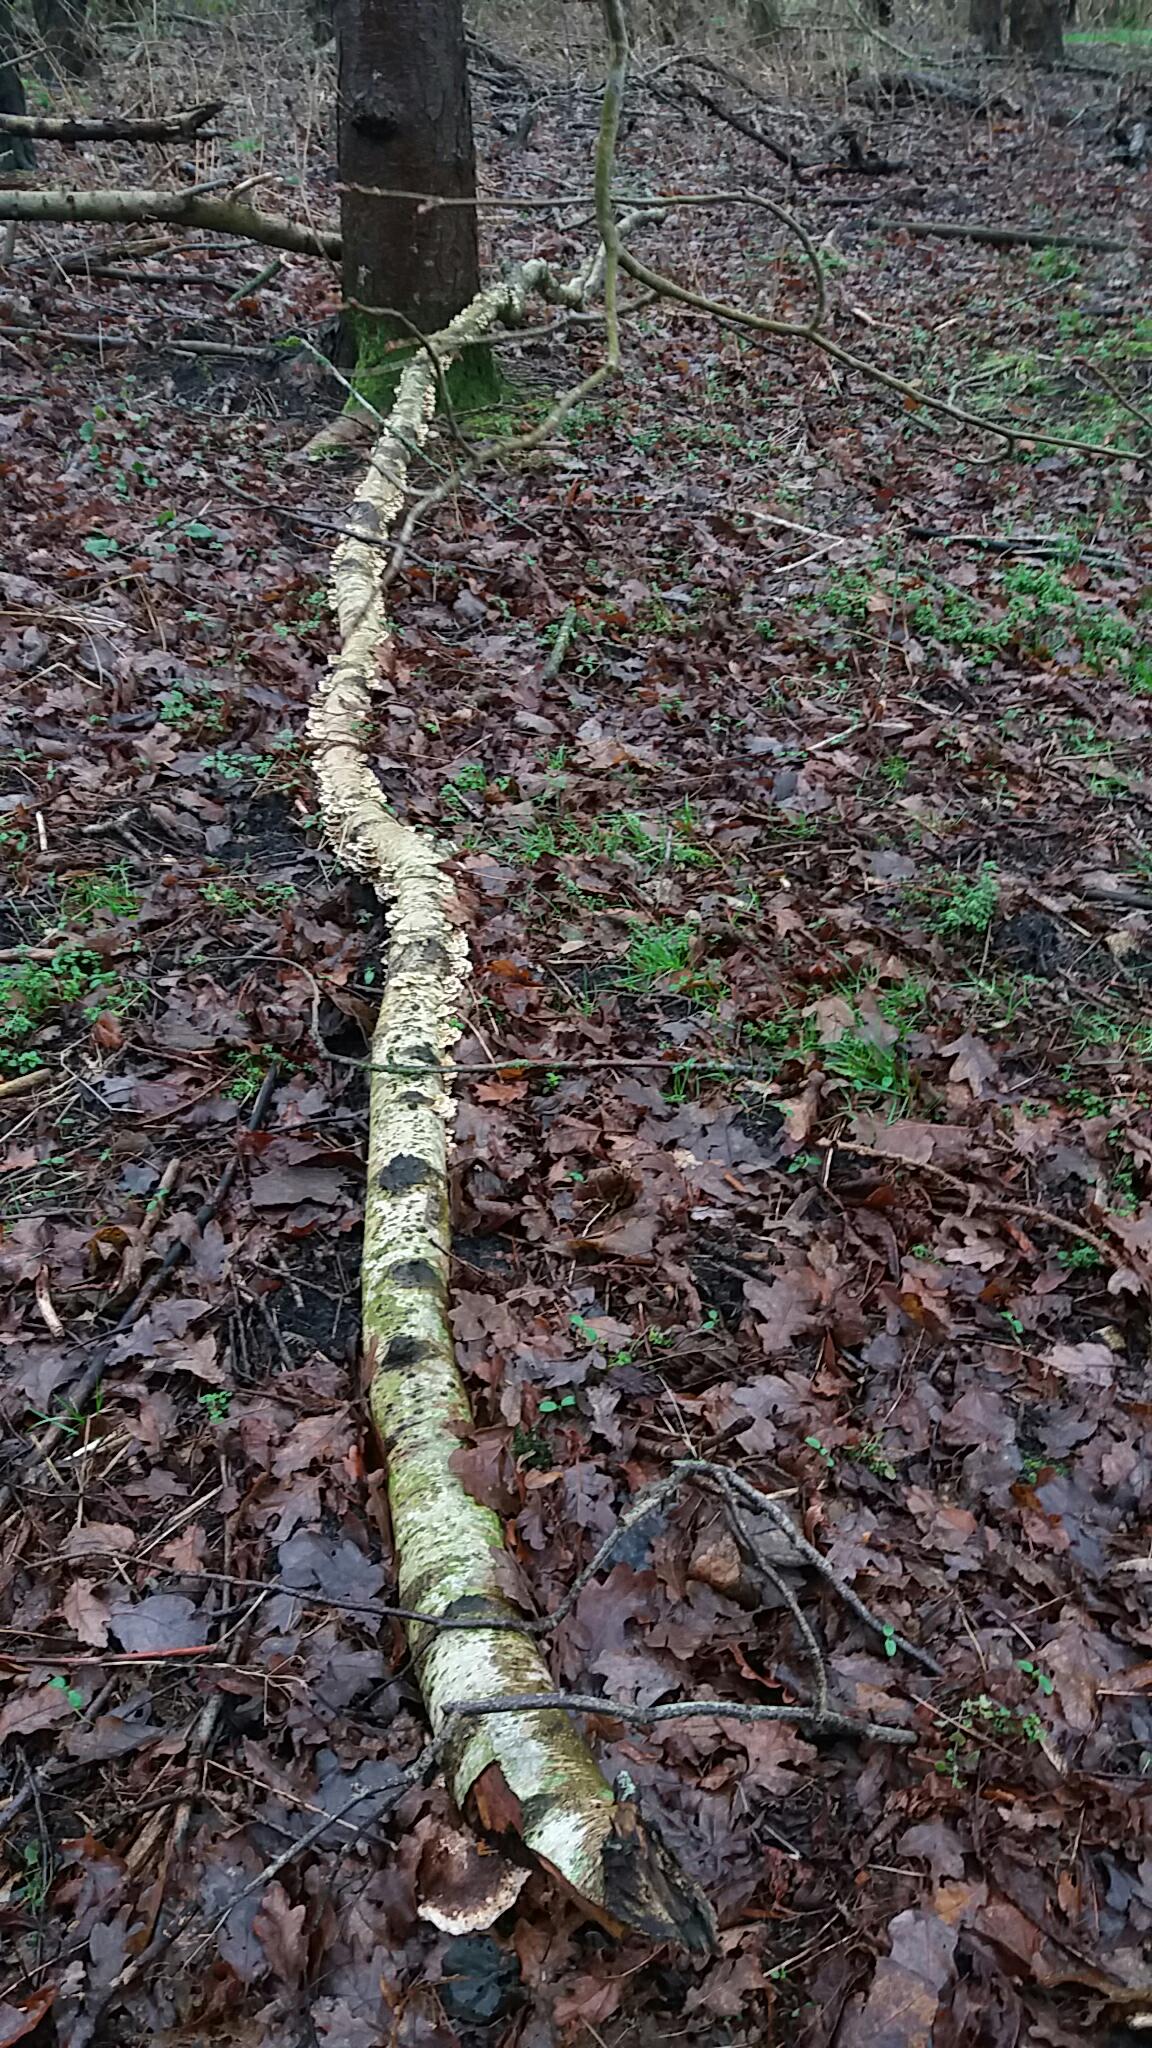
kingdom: Fungi
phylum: Basidiomycota
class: Agaricomycetes
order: Amylocorticiales
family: Amylocorticiaceae
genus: Plicaturopsis
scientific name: Plicaturopsis crispa
